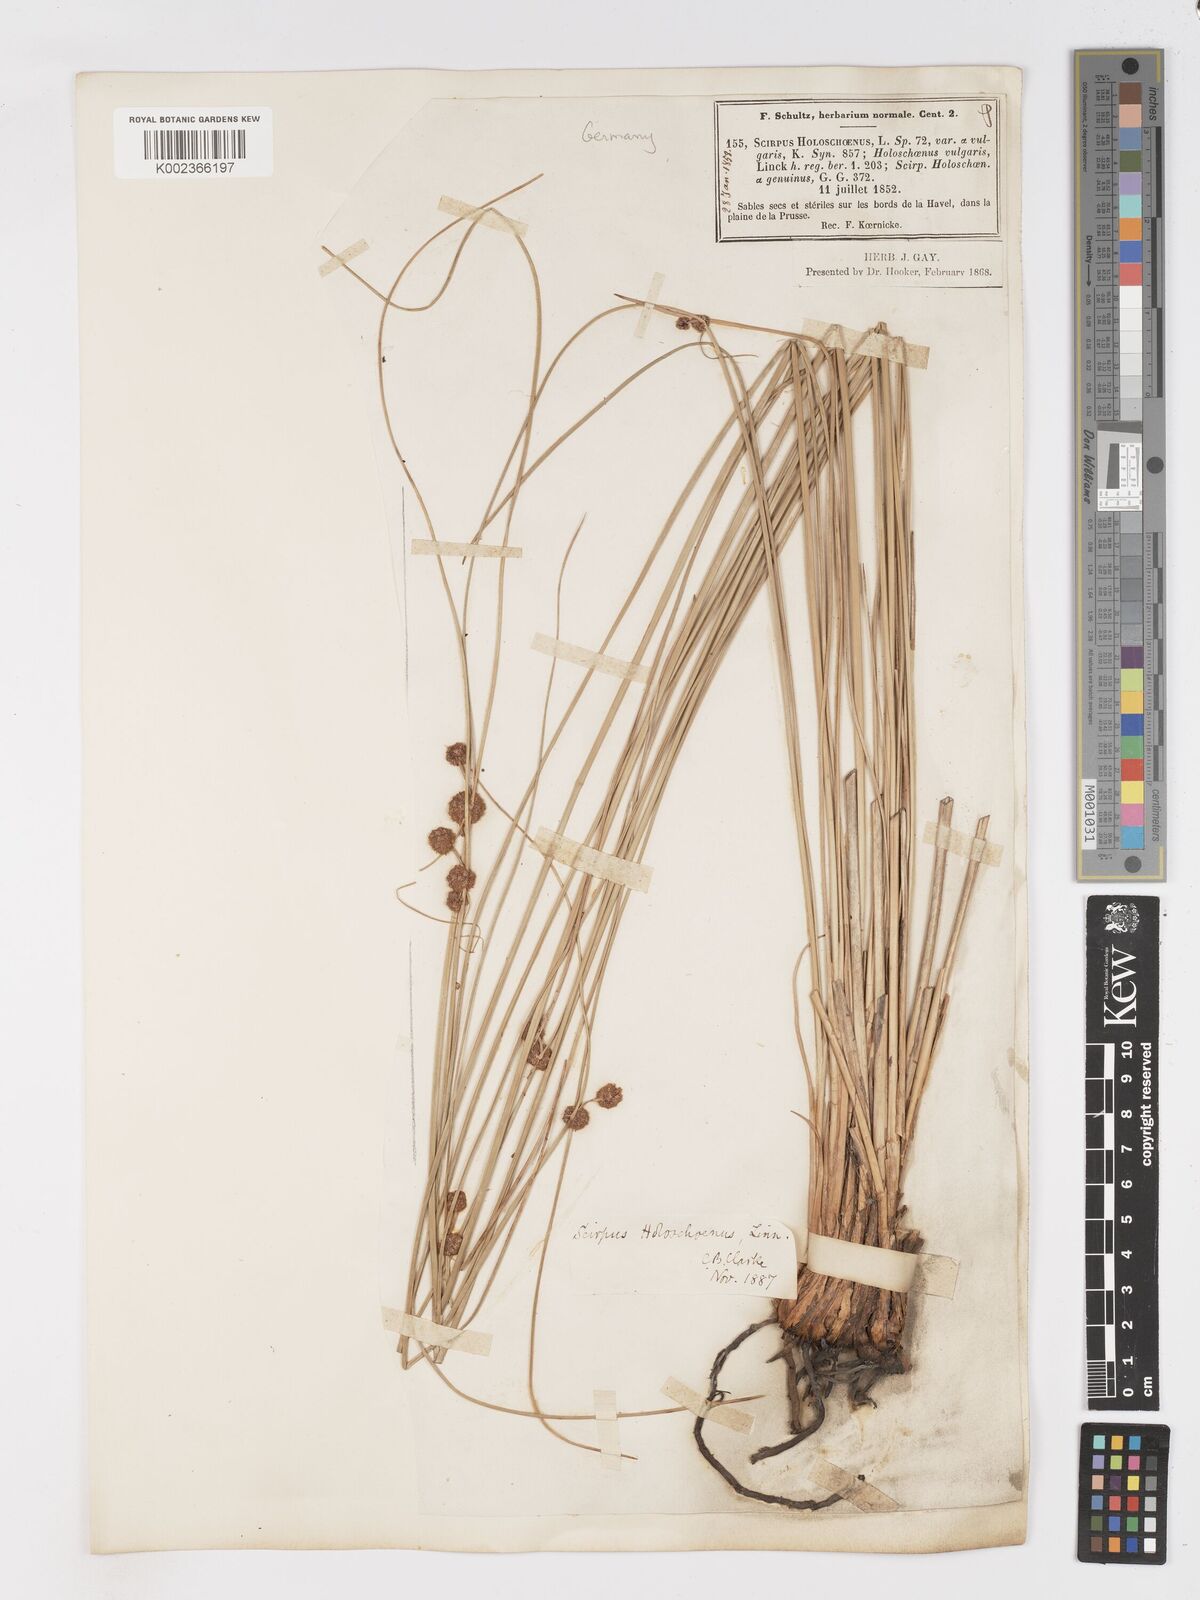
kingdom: Plantae
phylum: Tracheophyta
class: Liliopsida
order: Poales
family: Cyperaceae
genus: Scirpoides
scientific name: Scirpoides holoschoenus
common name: Round-headed club-rush
